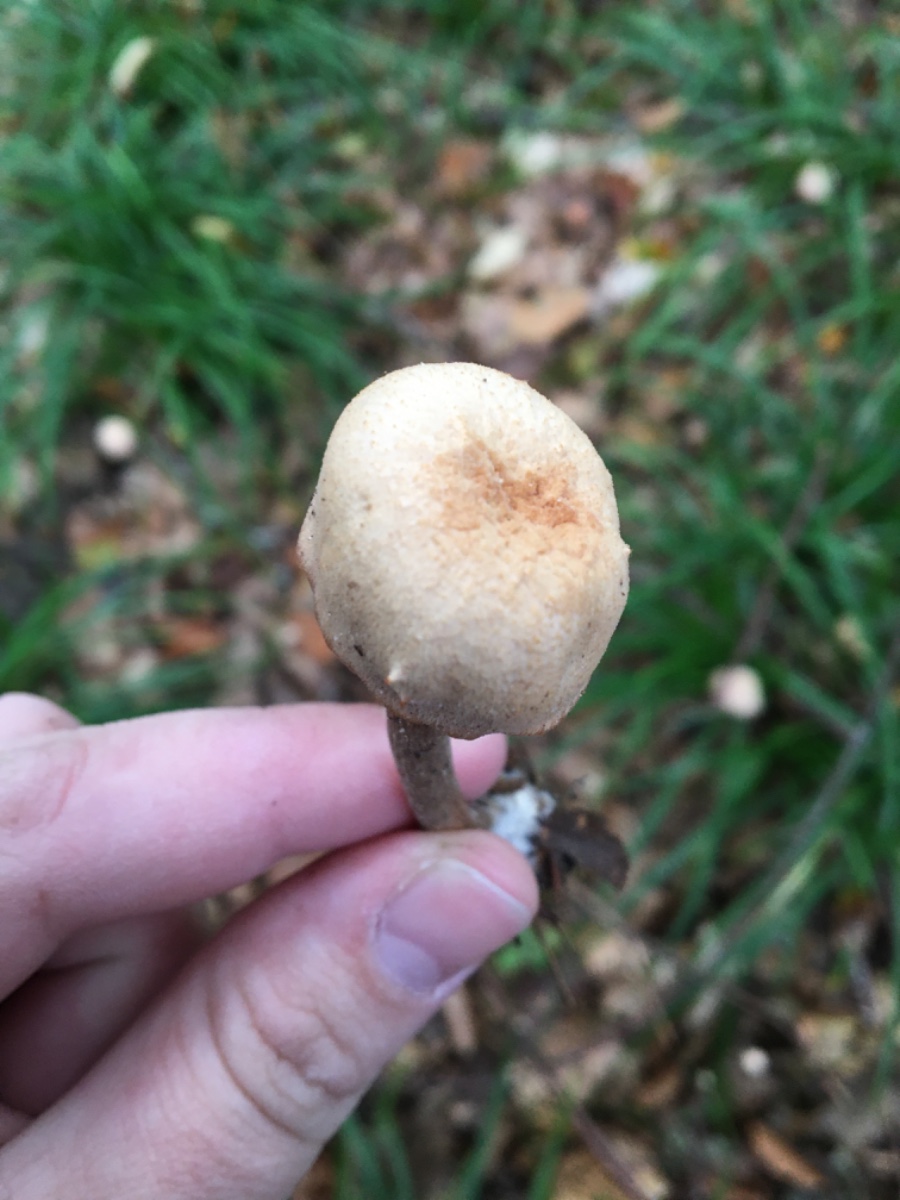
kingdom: Fungi
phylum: Basidiomycota
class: Agaricomycetes
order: Agaricales
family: Hydnangiaceae
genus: Laccaria
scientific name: Laccaria proxima
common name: stor ametysthat
